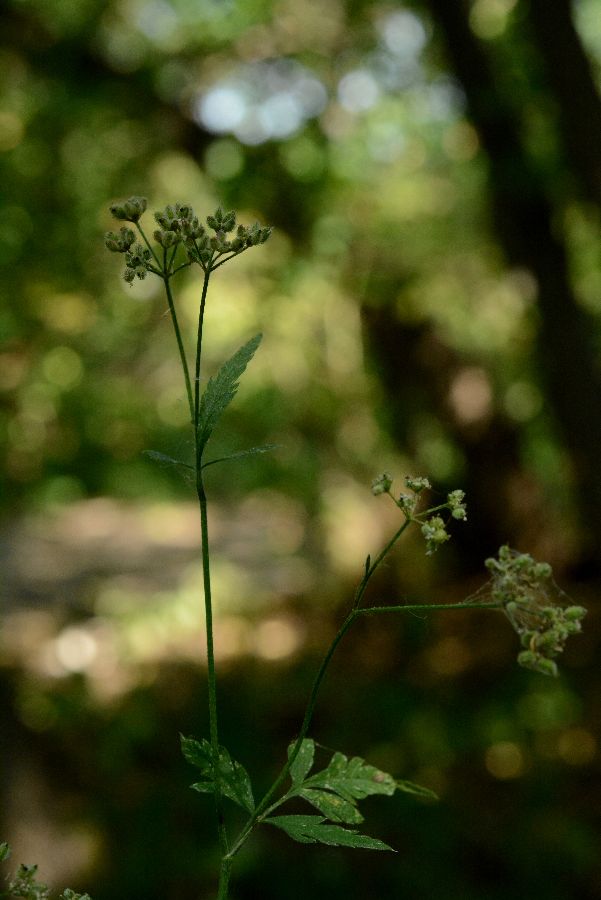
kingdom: Plantae
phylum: Tracheophyta
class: Magnoliopsida
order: Apiales
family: Apiaceae
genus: Torilis
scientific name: Torilis japonica
